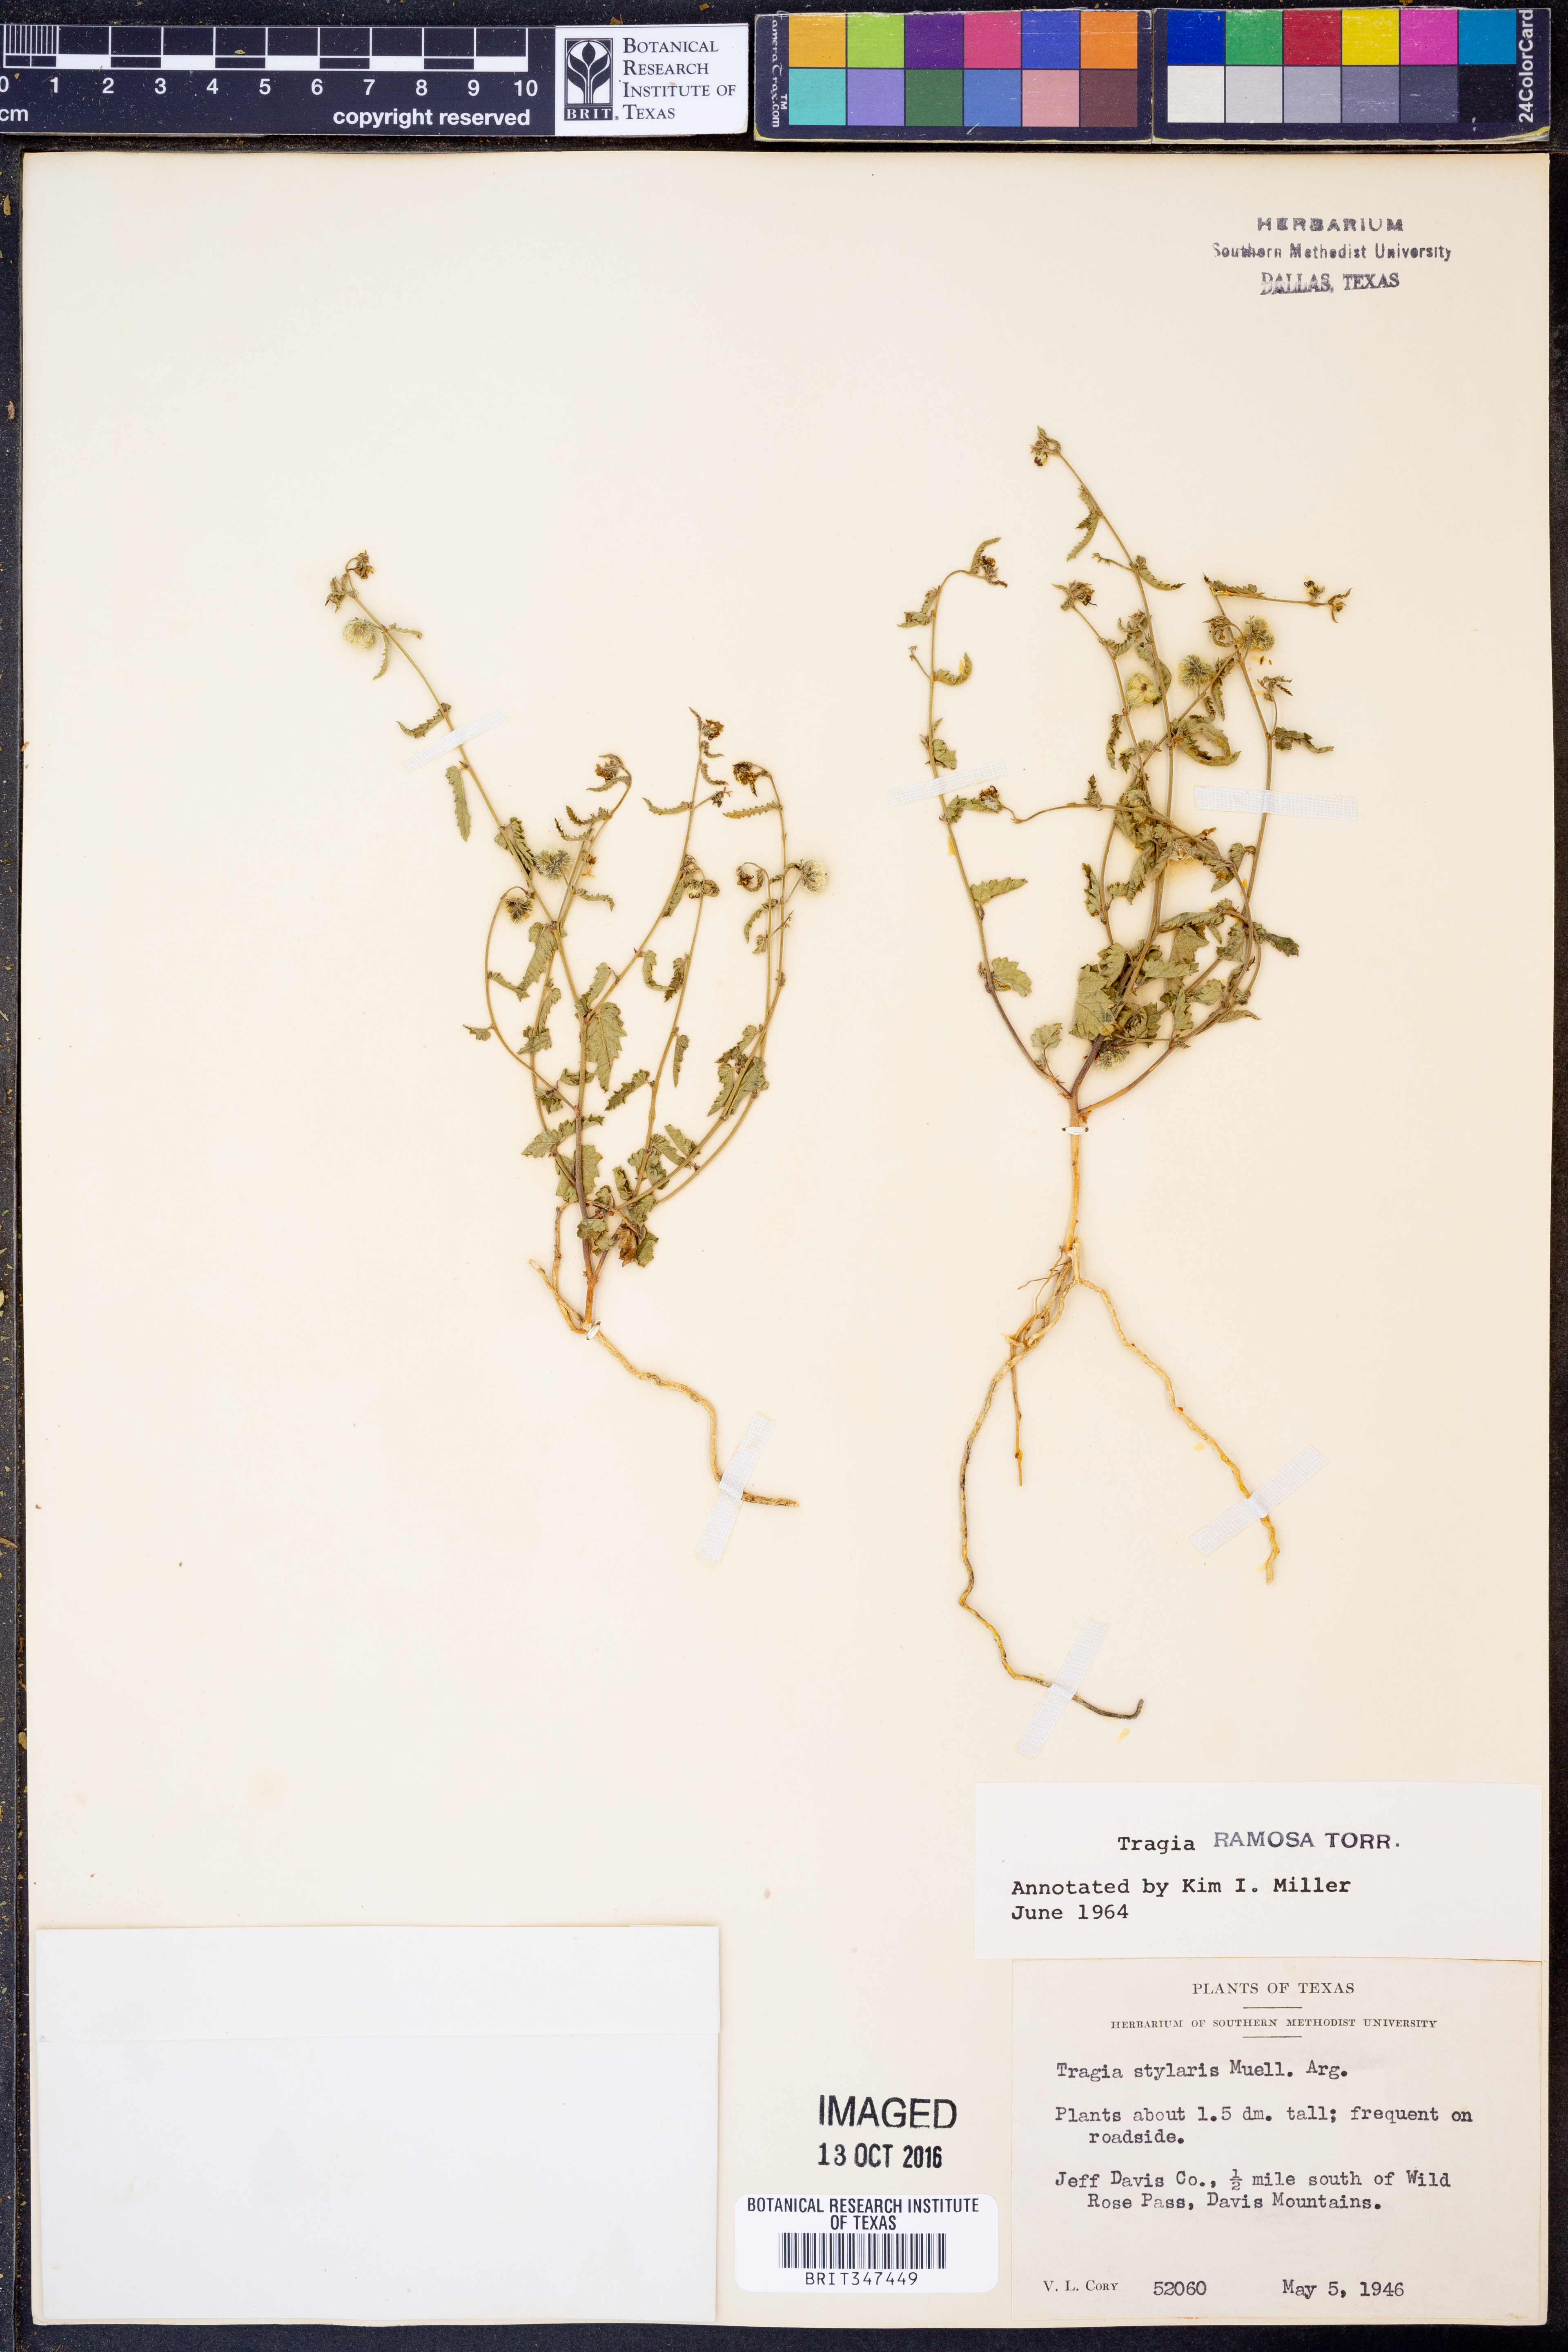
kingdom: Plantae
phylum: Tracheophyta
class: Magnoliopsida
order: Malpighiales
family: Euphorbiaceae
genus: Tragia
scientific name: Tragia ramosa
